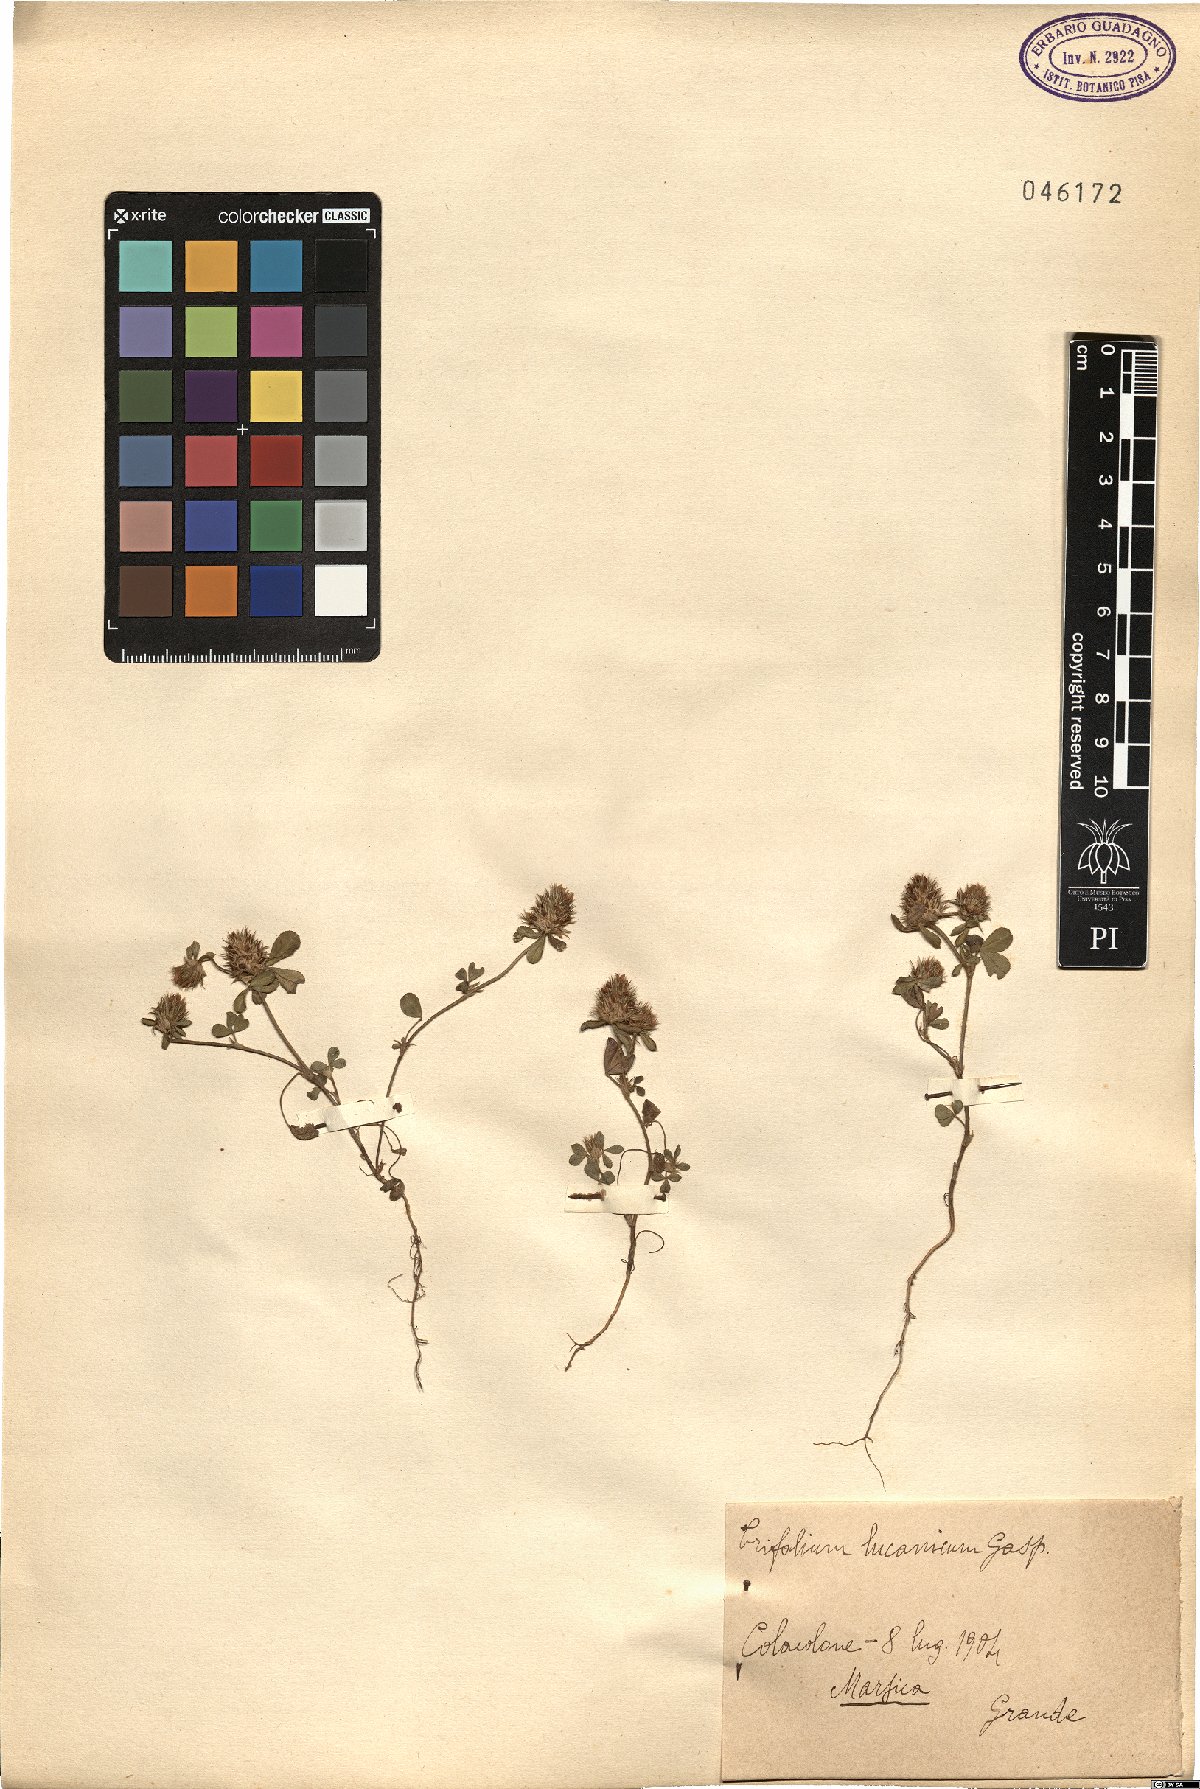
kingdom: Plantae
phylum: Tracheophyta
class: Magnoliopsida
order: Fabales
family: Fabaceae
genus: Trifolium
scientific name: Trifolium lucanicum
